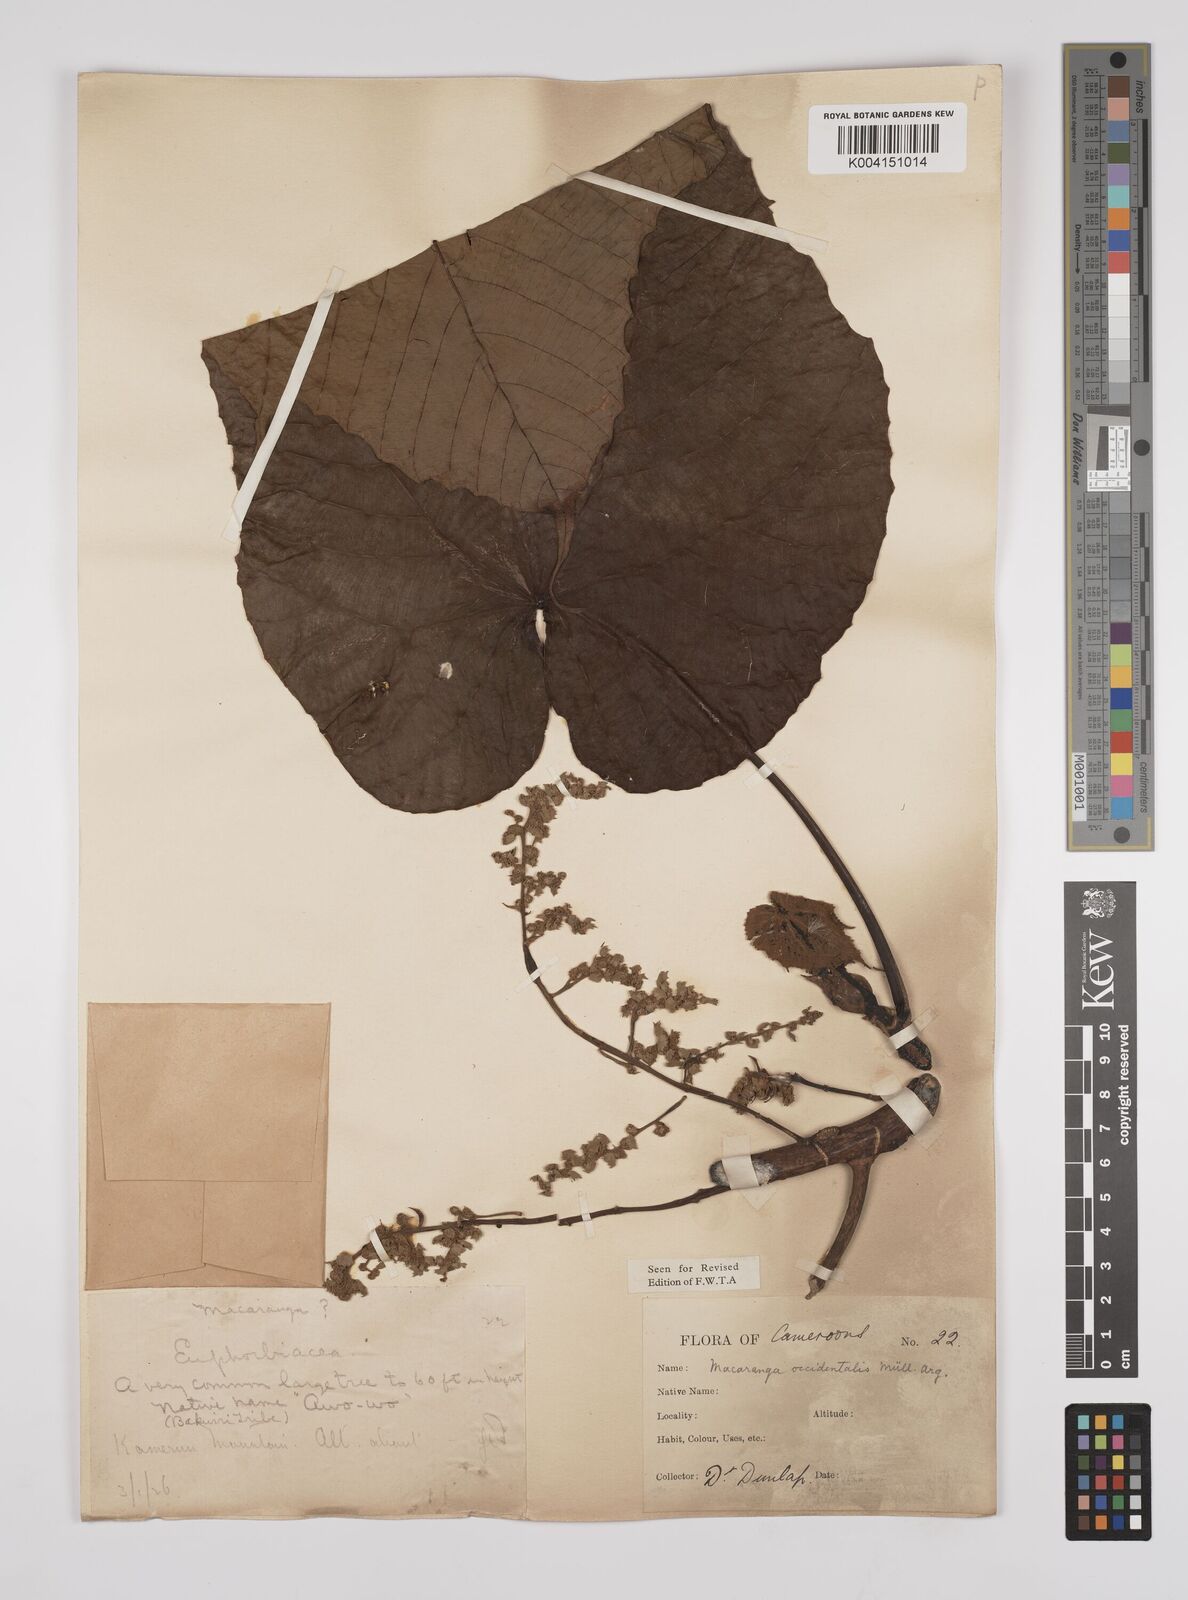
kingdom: Plantae
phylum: Tracheophyta
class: Magnoliopsida
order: Malpighiales
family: Euphorbiaceae
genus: Macaranga
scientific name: Macaranga occidentalis
